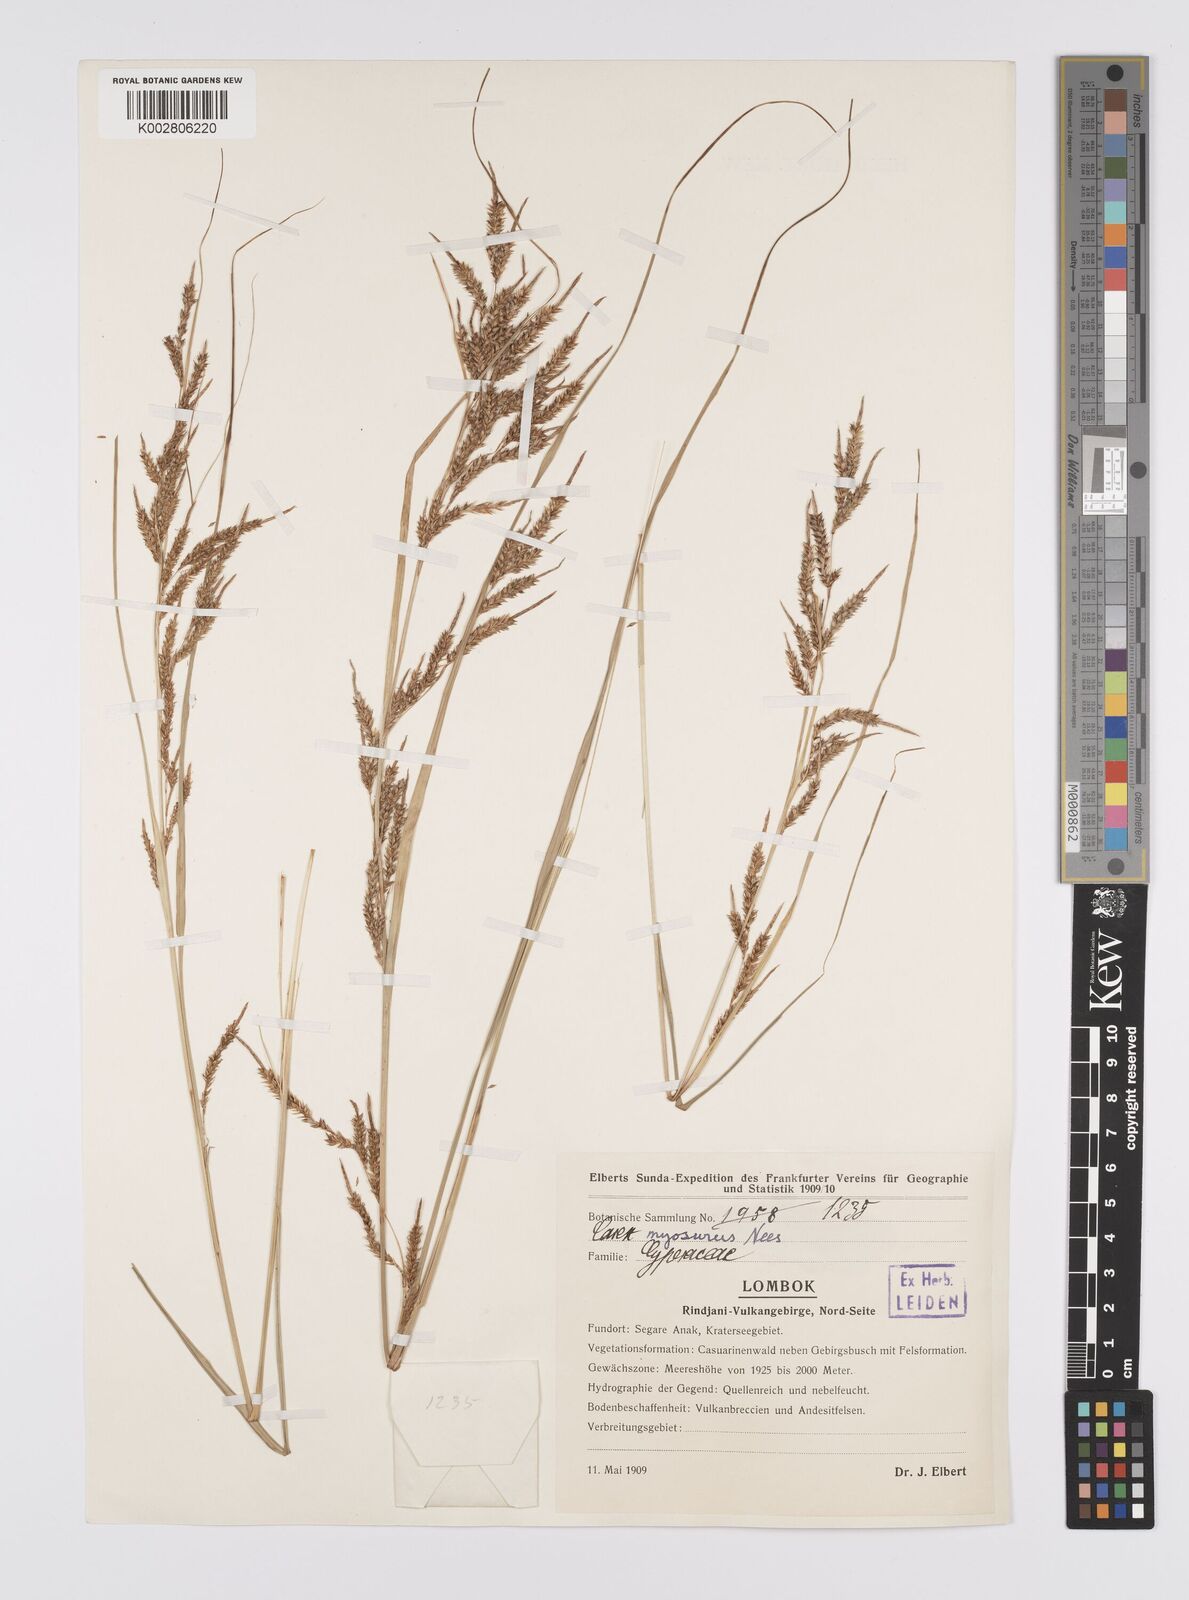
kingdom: Plantae
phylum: Tracheophyta
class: Liliopsida
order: Poales
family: Cyperaceae
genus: Carex
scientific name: Carex myosurus
